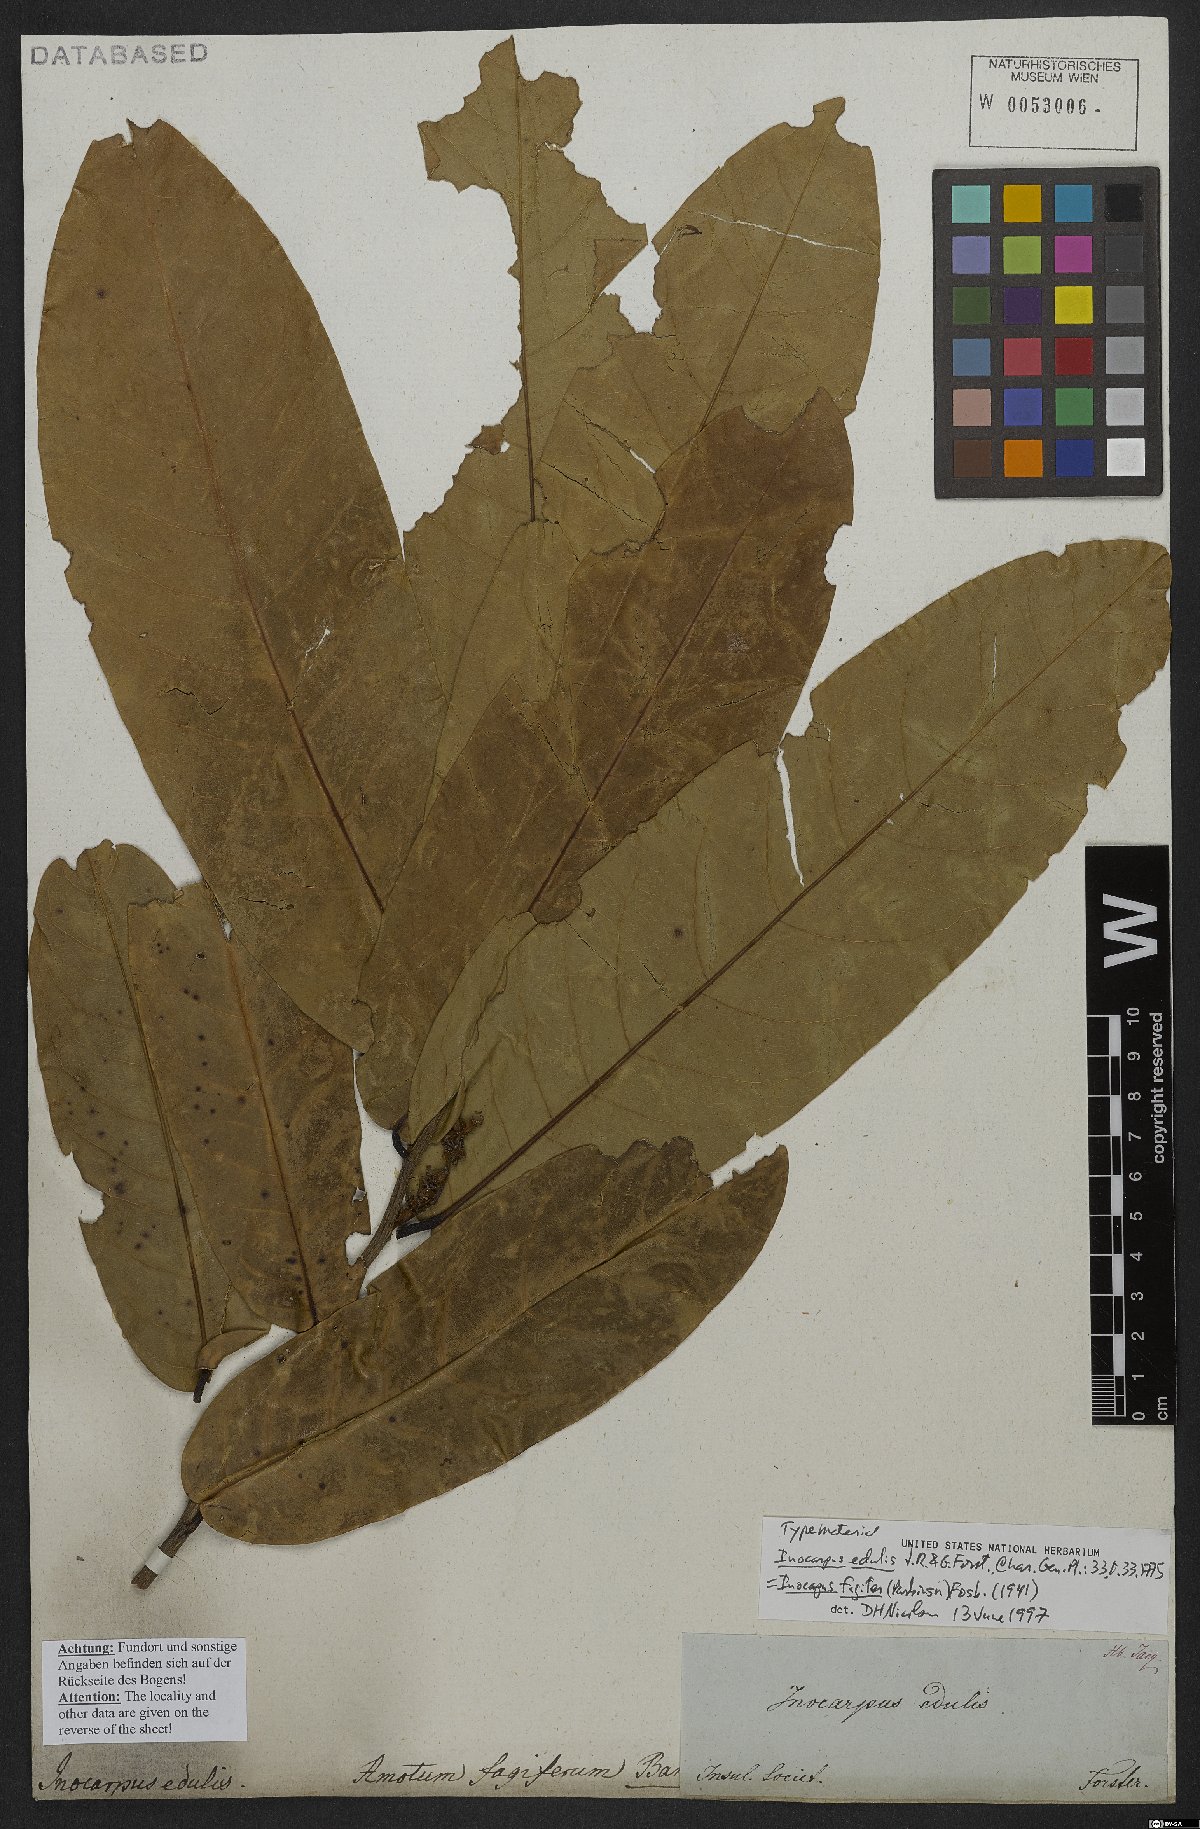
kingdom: Plantae
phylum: Tracheophyta
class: Magnoliopsida
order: Fabales
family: Fabaceae
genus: Inocarpus
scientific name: Inocarpus fagifer
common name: Polynesian chestnut
